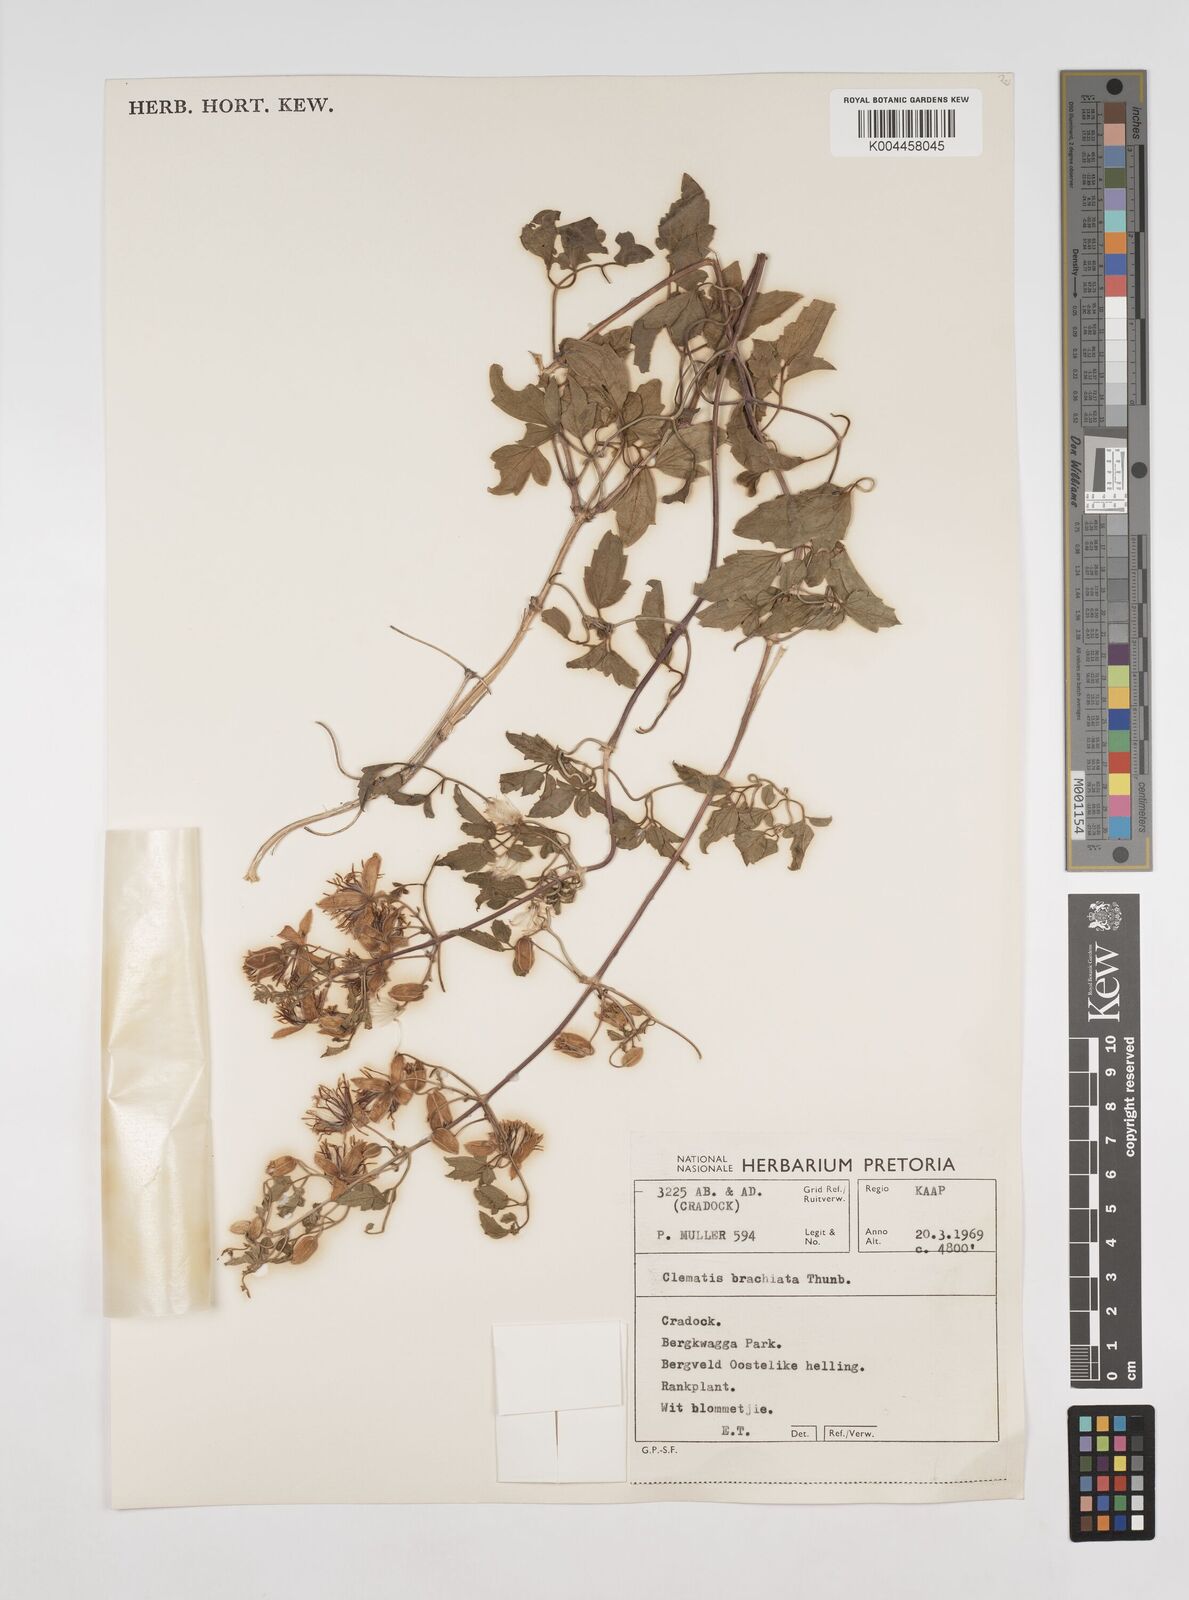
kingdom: Plantae
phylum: Tracheophyta
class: Magnoliopsida
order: Ranunculales
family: Ranunculaceae
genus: Clematis
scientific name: Clematis brachiata
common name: Traveler's-joy
